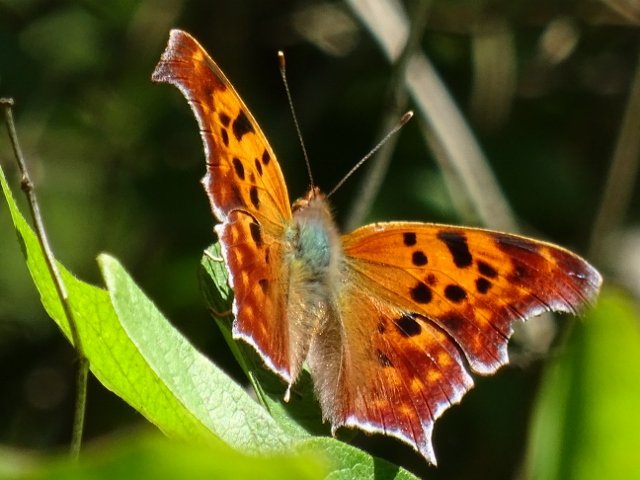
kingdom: Animalia
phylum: Arthropoda
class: Insecta
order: Lepidoptera
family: Nymphalidae
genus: Polygonia
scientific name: Polygonia interrogationis
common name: Question Mark
